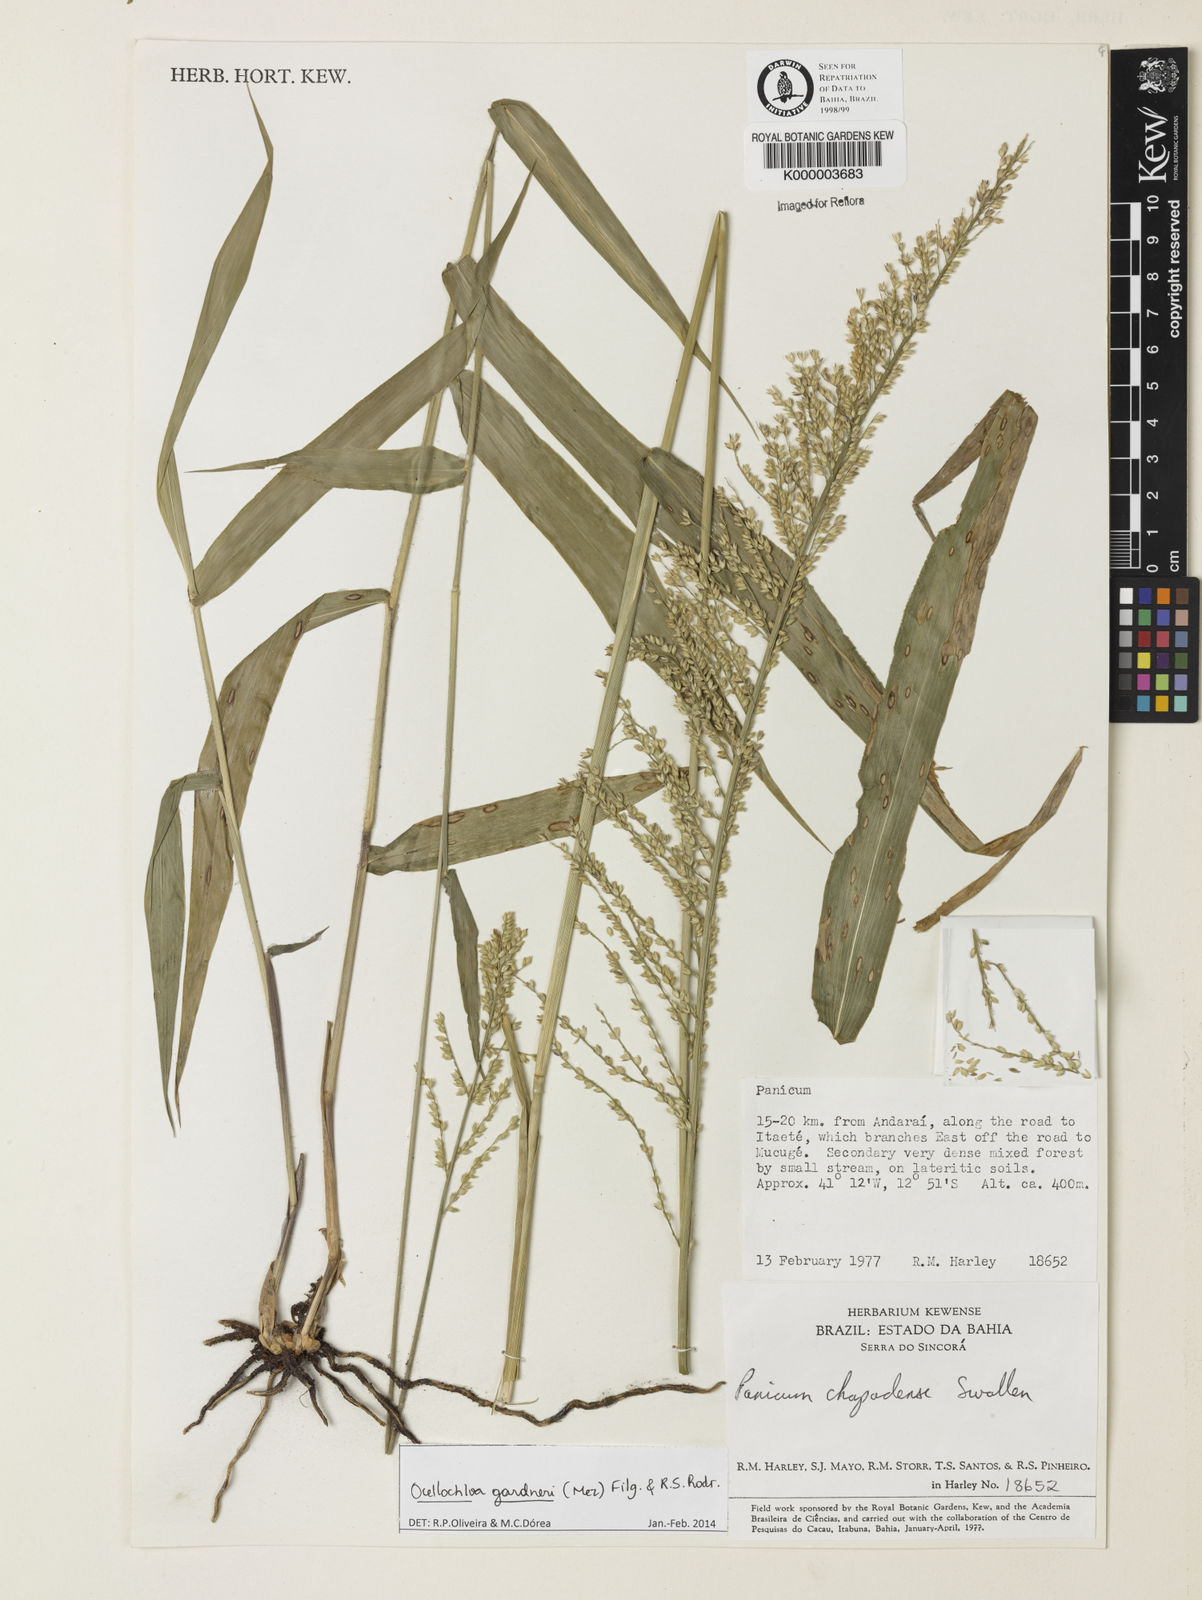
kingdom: Plantae
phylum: Tracheophyta
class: Liliopsida
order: Poales
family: Poaceae
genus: Ocellochloa
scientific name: Ocellochloa chapadensis
